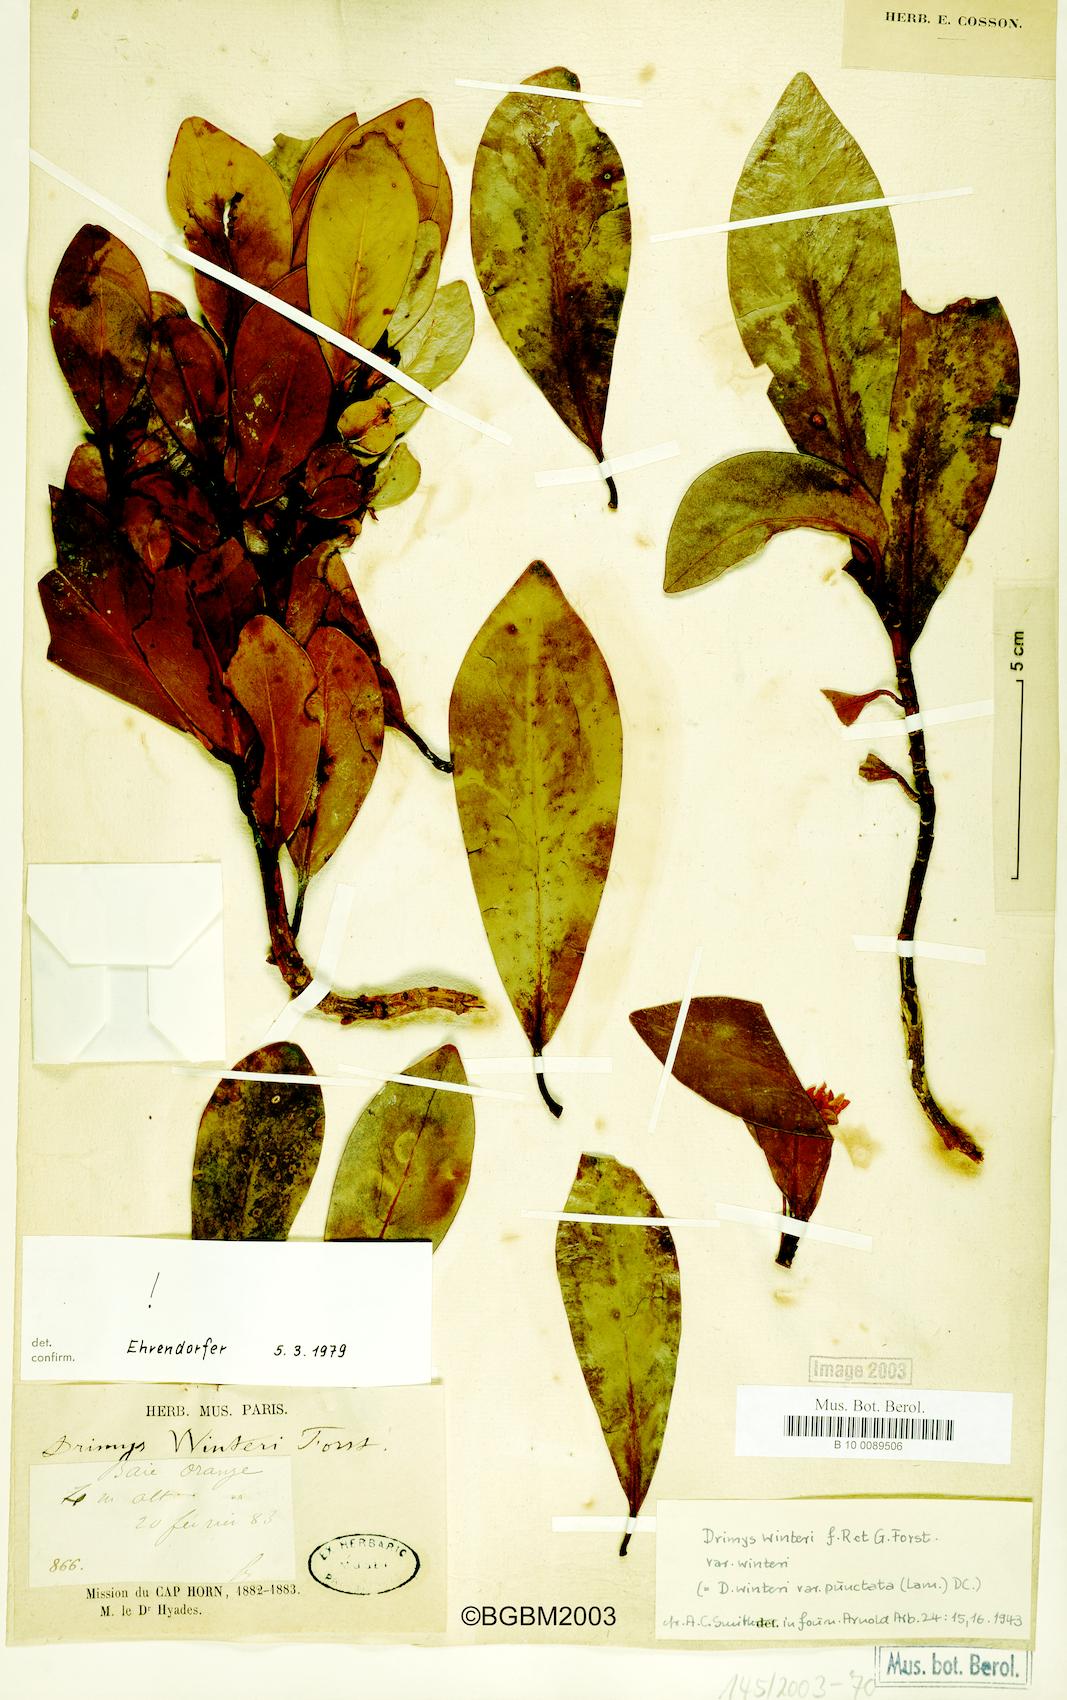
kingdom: Plantae
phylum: Tracheophyta
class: Magnoliopsida
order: Canellales
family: Winteraceae
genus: Drimys
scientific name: Drimys winteri
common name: Winter's-bark
